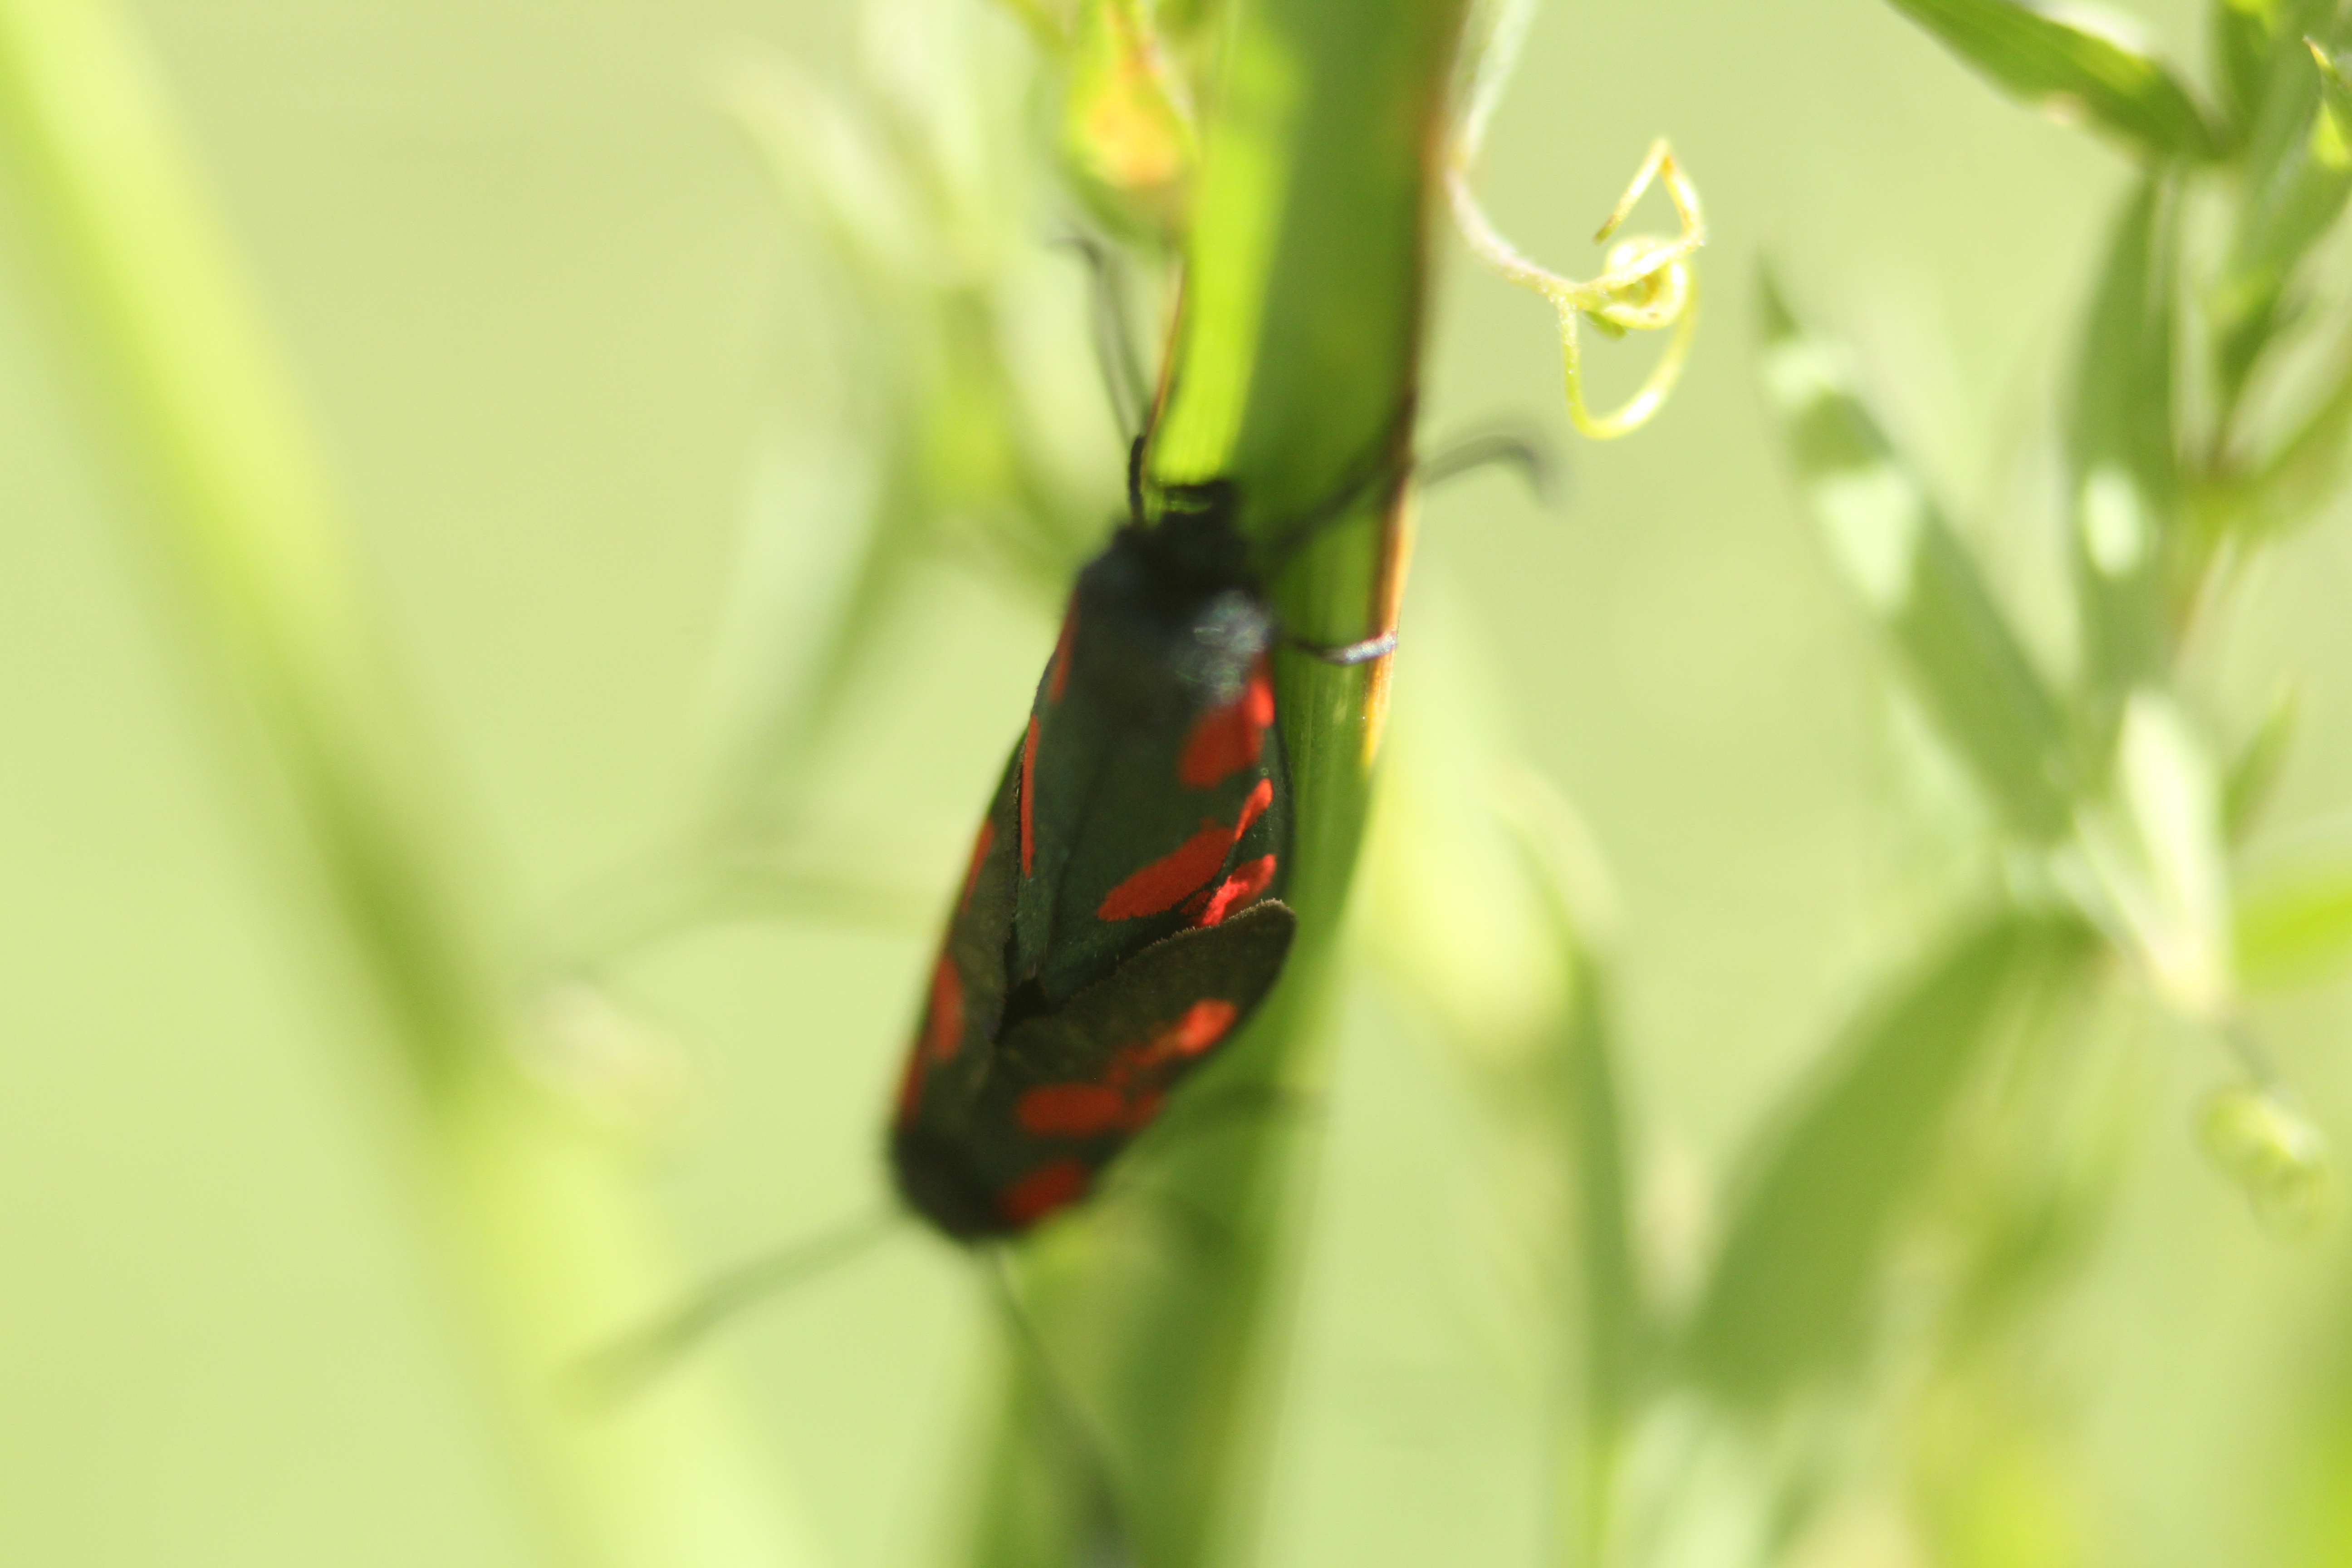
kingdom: Animalia
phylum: Arthropoda
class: Insecta
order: Lepidoptera
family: Zygaenidae
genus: Zygaena
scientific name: Zygaena viciae
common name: New forest burnet
